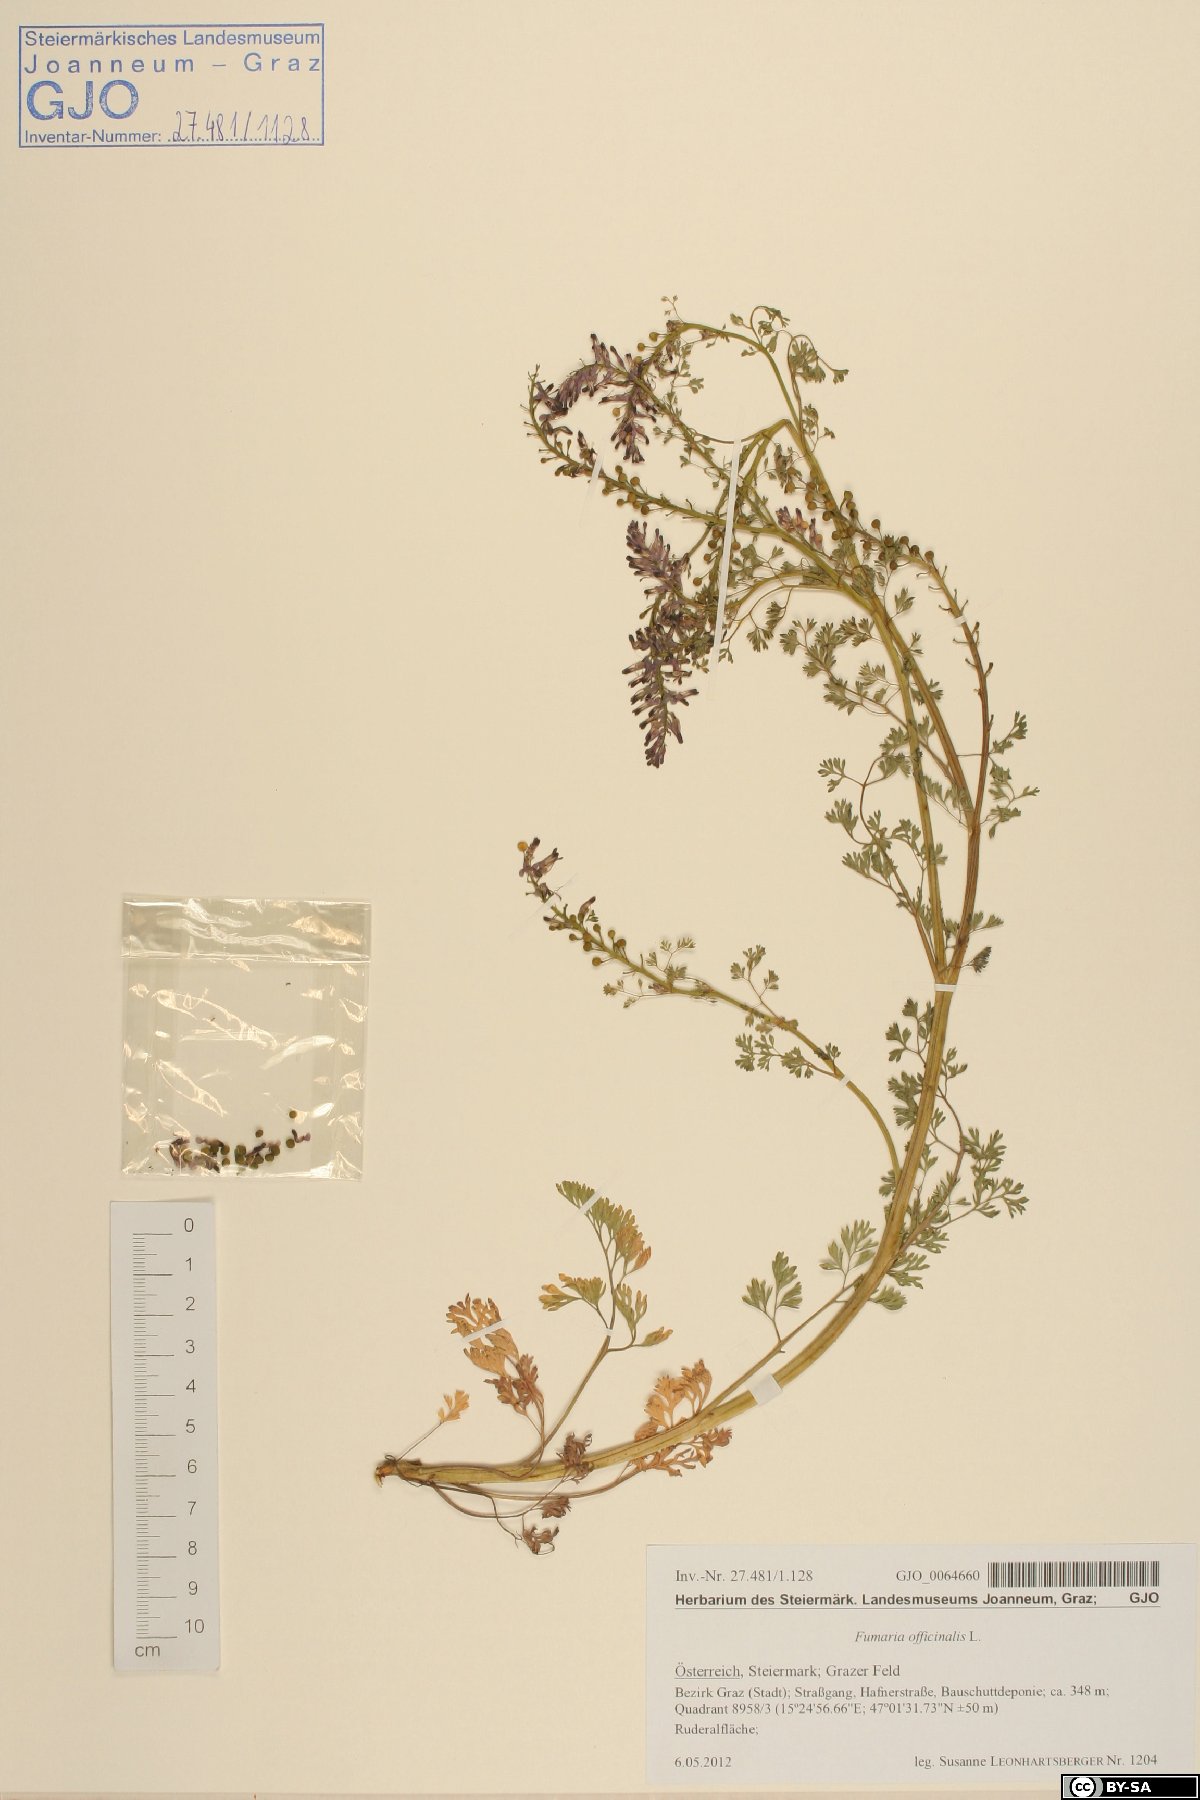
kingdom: Plantae
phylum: Tracheophyta
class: Magnoliopsida
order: Ranunculales
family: Papaveraceae
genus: Fumaria
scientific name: Fumaria officinalis
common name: Common fumitory
